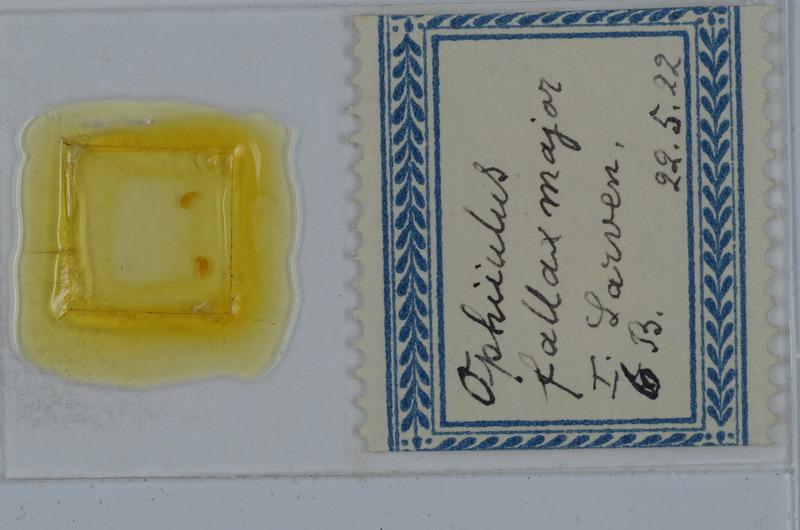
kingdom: Animalia
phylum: Arthropoda
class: Diplopoda
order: Julida
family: Julidae
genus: Ophyiulus
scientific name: Ophyiulus pilosus
